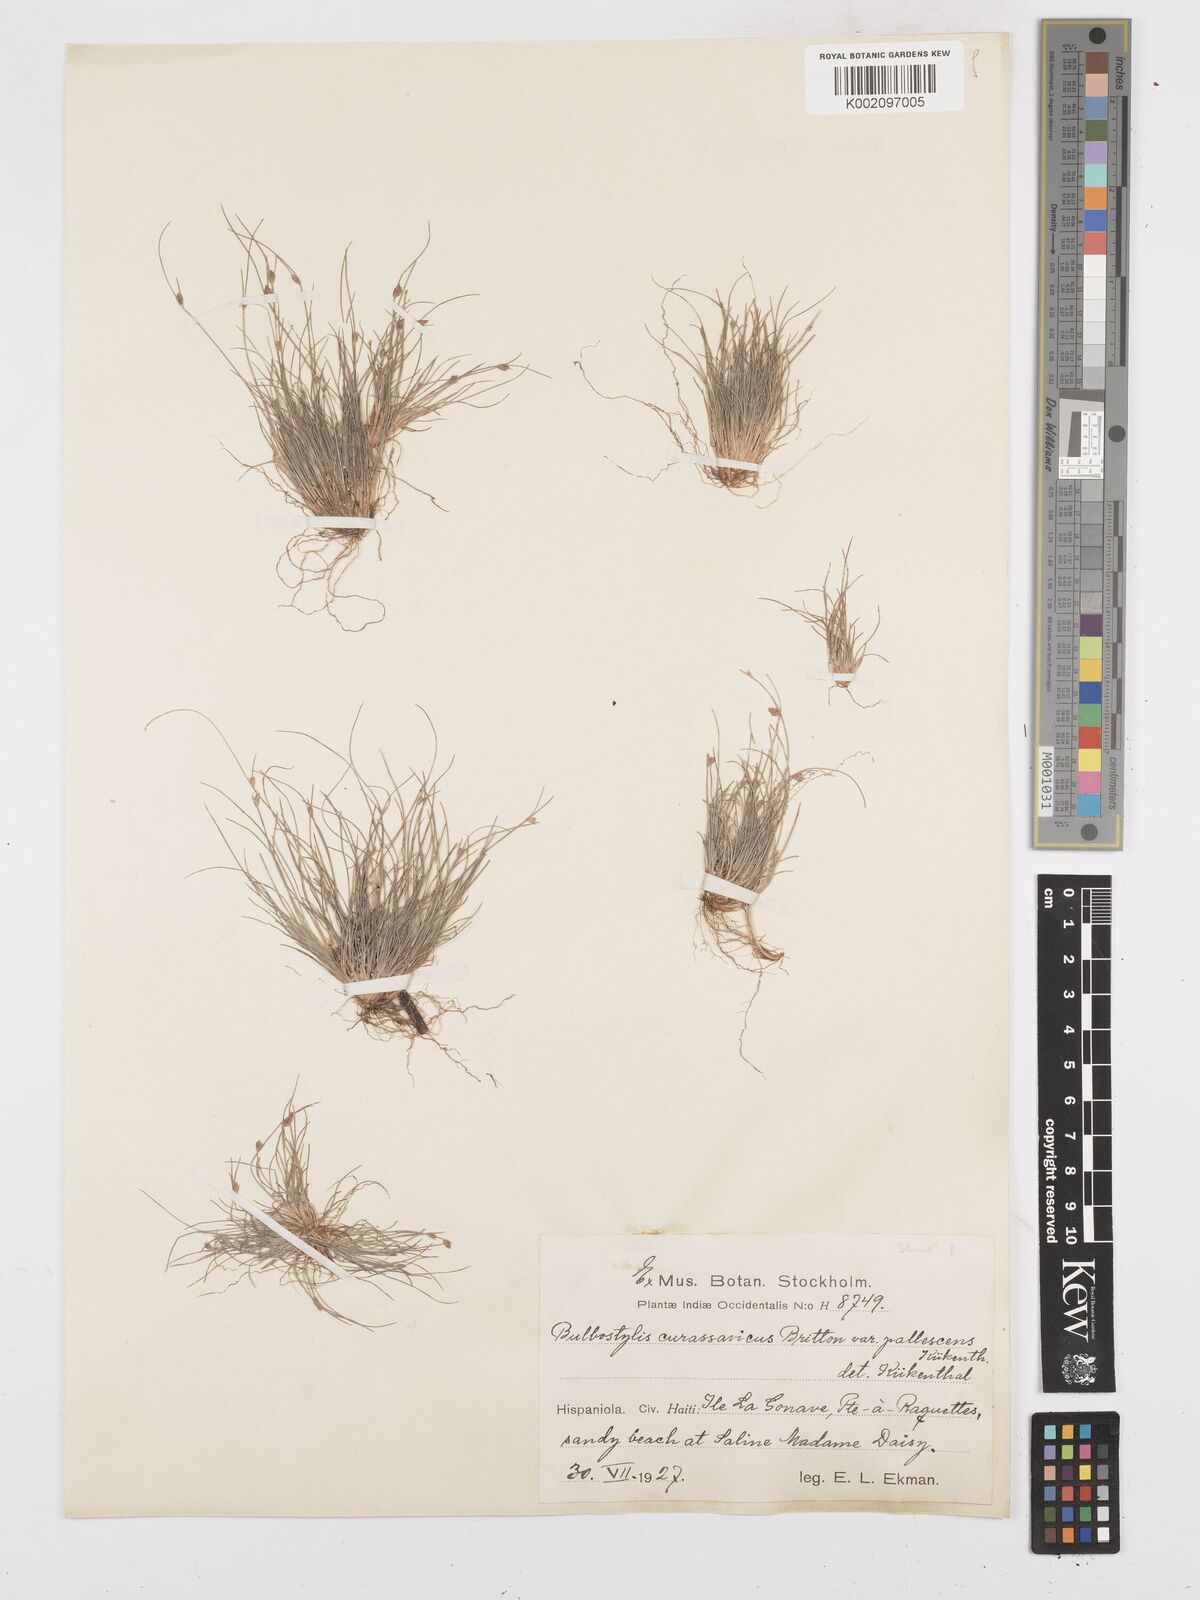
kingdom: Plantae
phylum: Tracheophyta
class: Liliopsida
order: Poales
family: Cyperaceae
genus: Bulbostylis
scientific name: Bulbostylis curassavica
